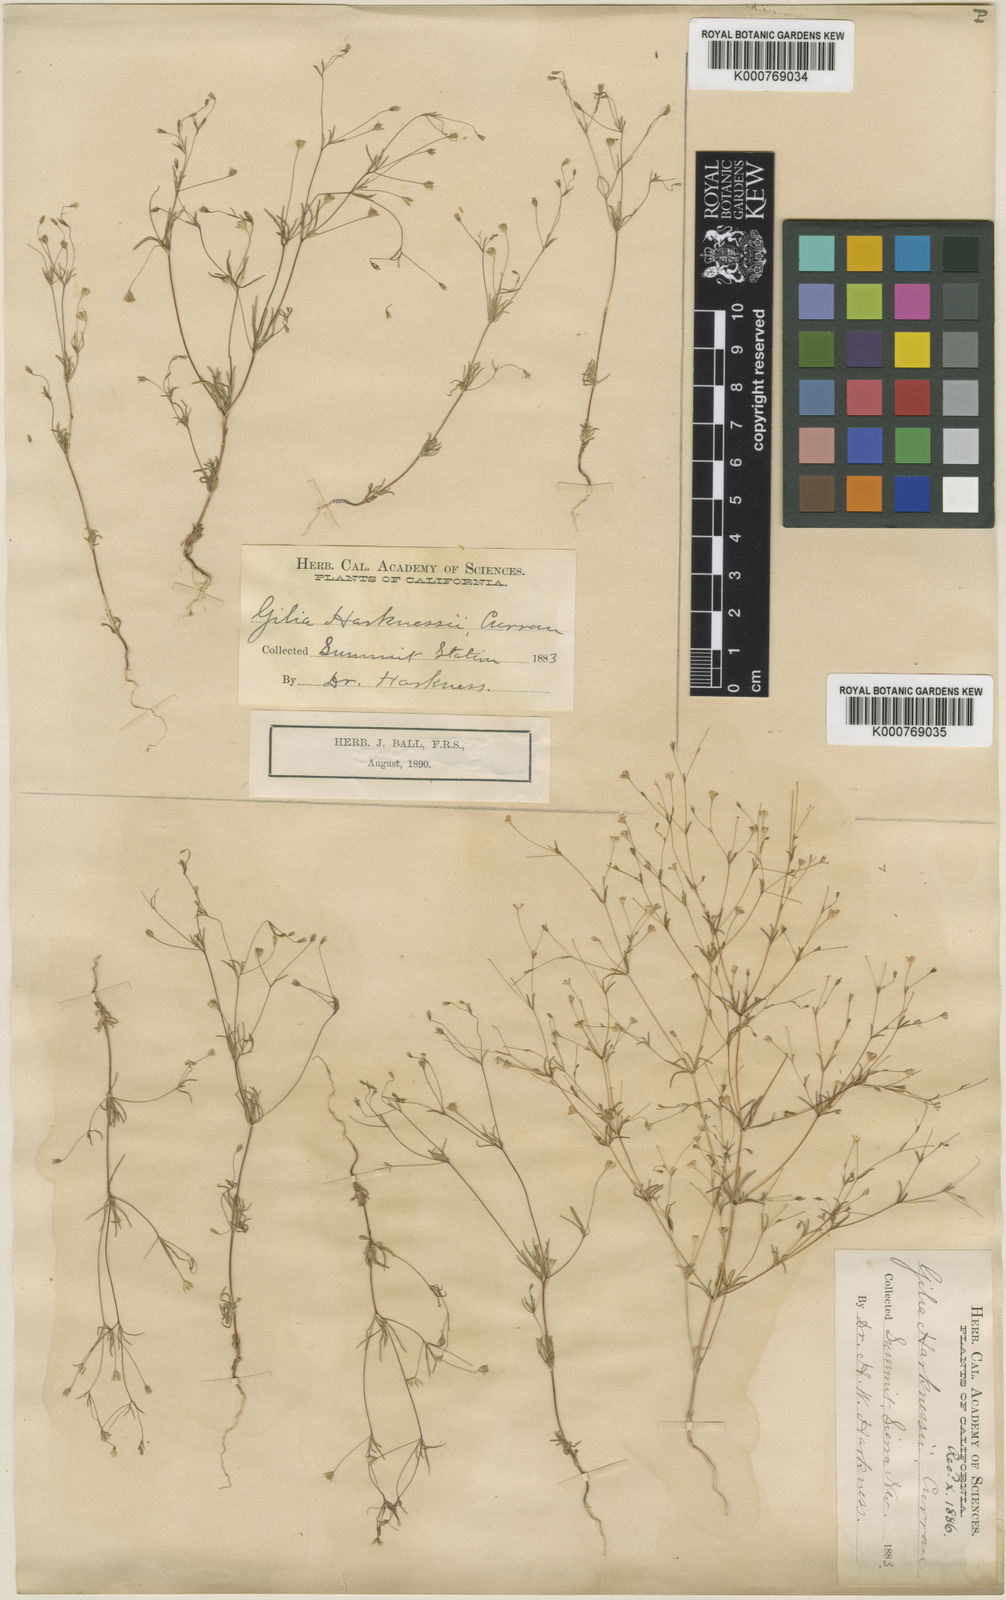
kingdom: Plantae
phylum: Tracheophyta
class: Magnoliopsida
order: Ericales
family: Polemoniaceae
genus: Linanthus
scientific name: Linanthus harknessii
